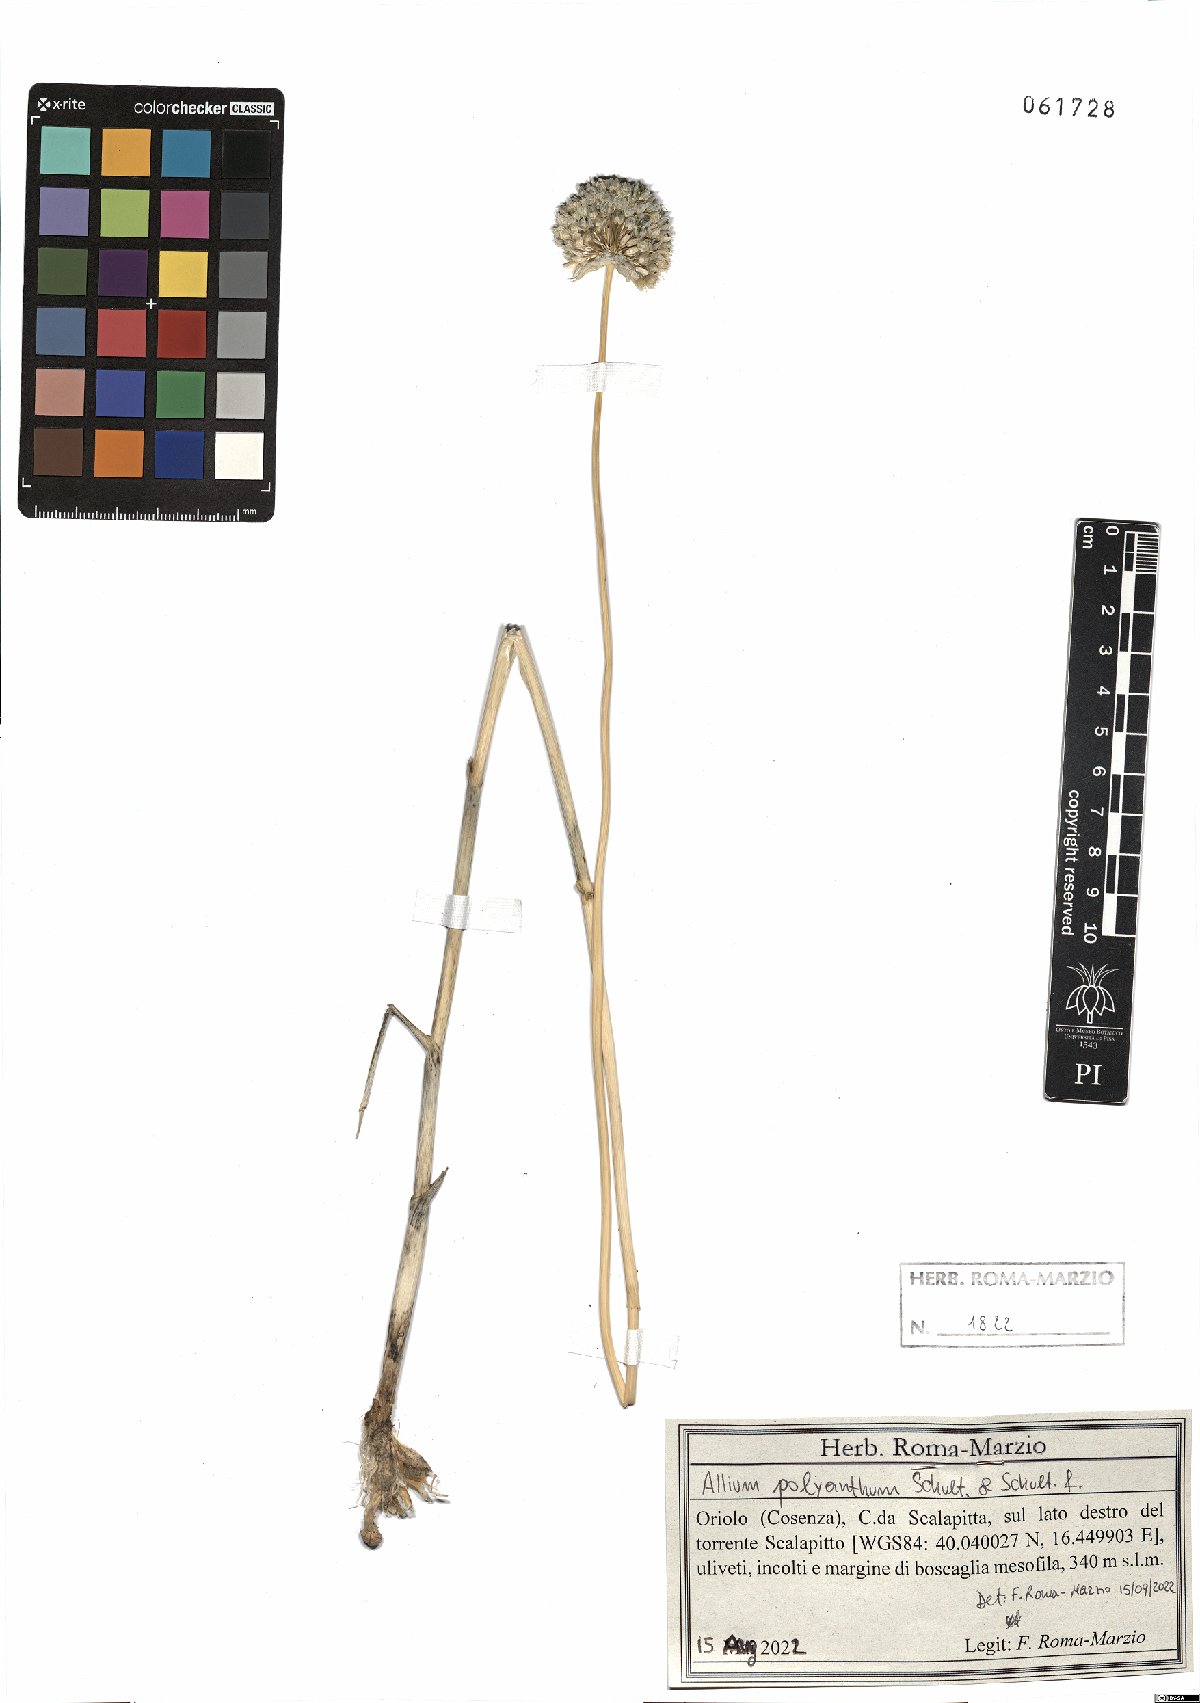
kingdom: Plantae
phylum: Tracheophyta
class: Liliopsida
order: Asparagales
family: Amaryllidaceae
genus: Allium
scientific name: Allium ampeloprasum
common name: Wild leek
